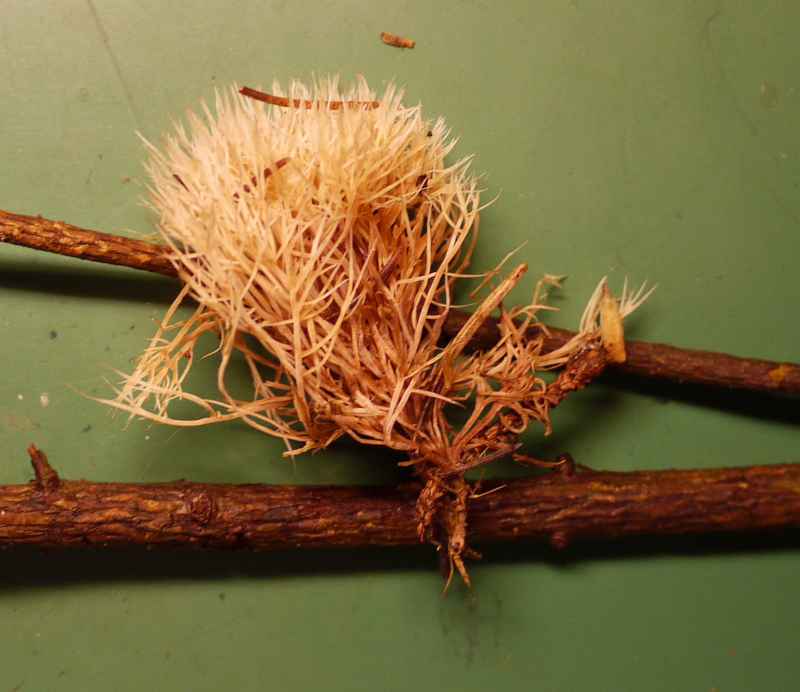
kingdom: Fungi
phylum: Basidiomycota
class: Agaricomycetes
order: Agaricales
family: Pterulaceae
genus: Pterula
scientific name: Pterula multifida
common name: busket fjerkølle
